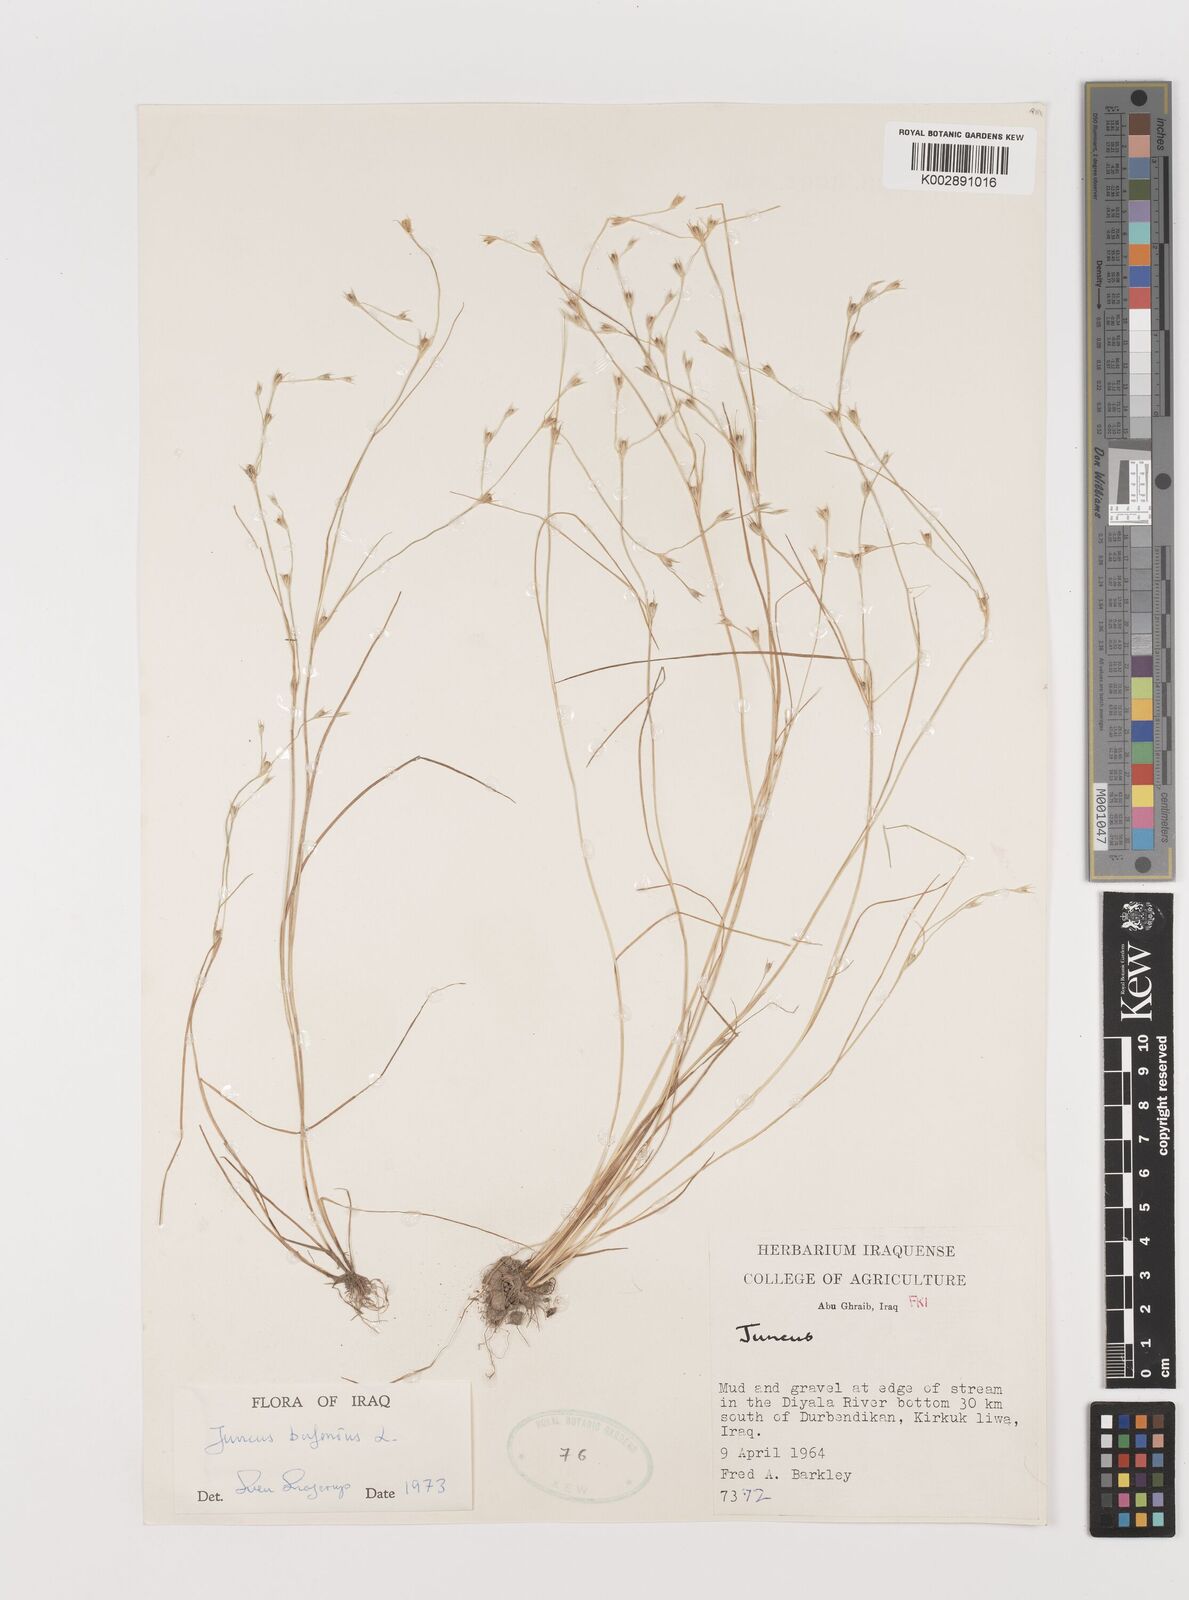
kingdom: Plantae
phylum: Tracheophyta
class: Liliopsida
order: Poales
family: Juncaceae
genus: Juncus
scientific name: Juncus bufonius
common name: Toad rush
